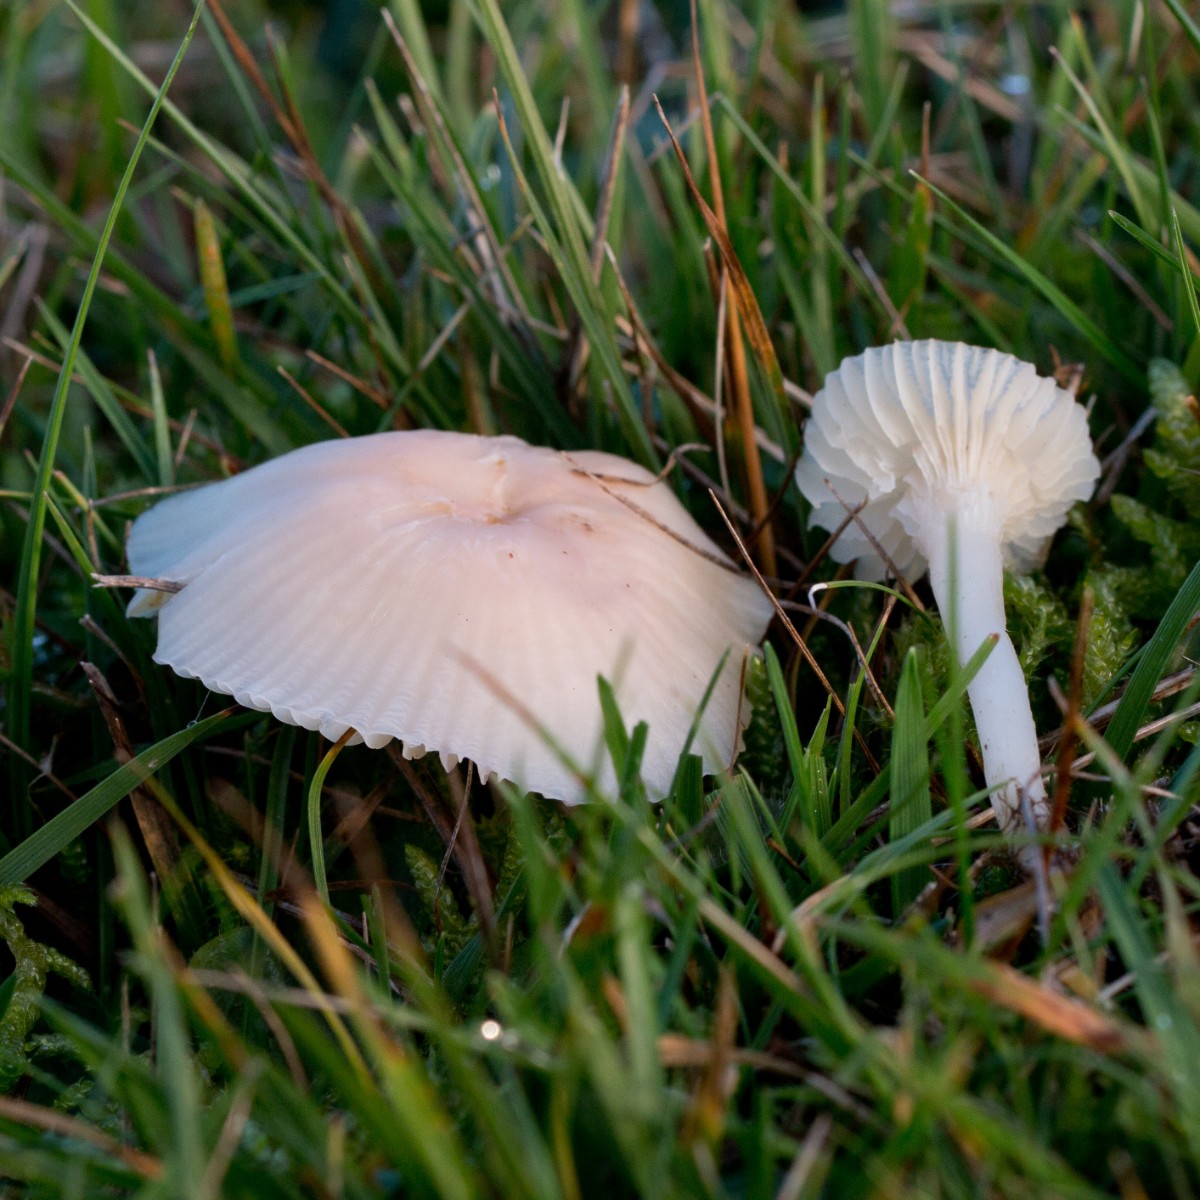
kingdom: Fungi
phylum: Basidiomycota
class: Agaricomycetes
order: Agaricales
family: Hygrophoraceae
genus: Cuphophyllus
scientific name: Cuphophyllus virgineus
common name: snehvid vokshat
